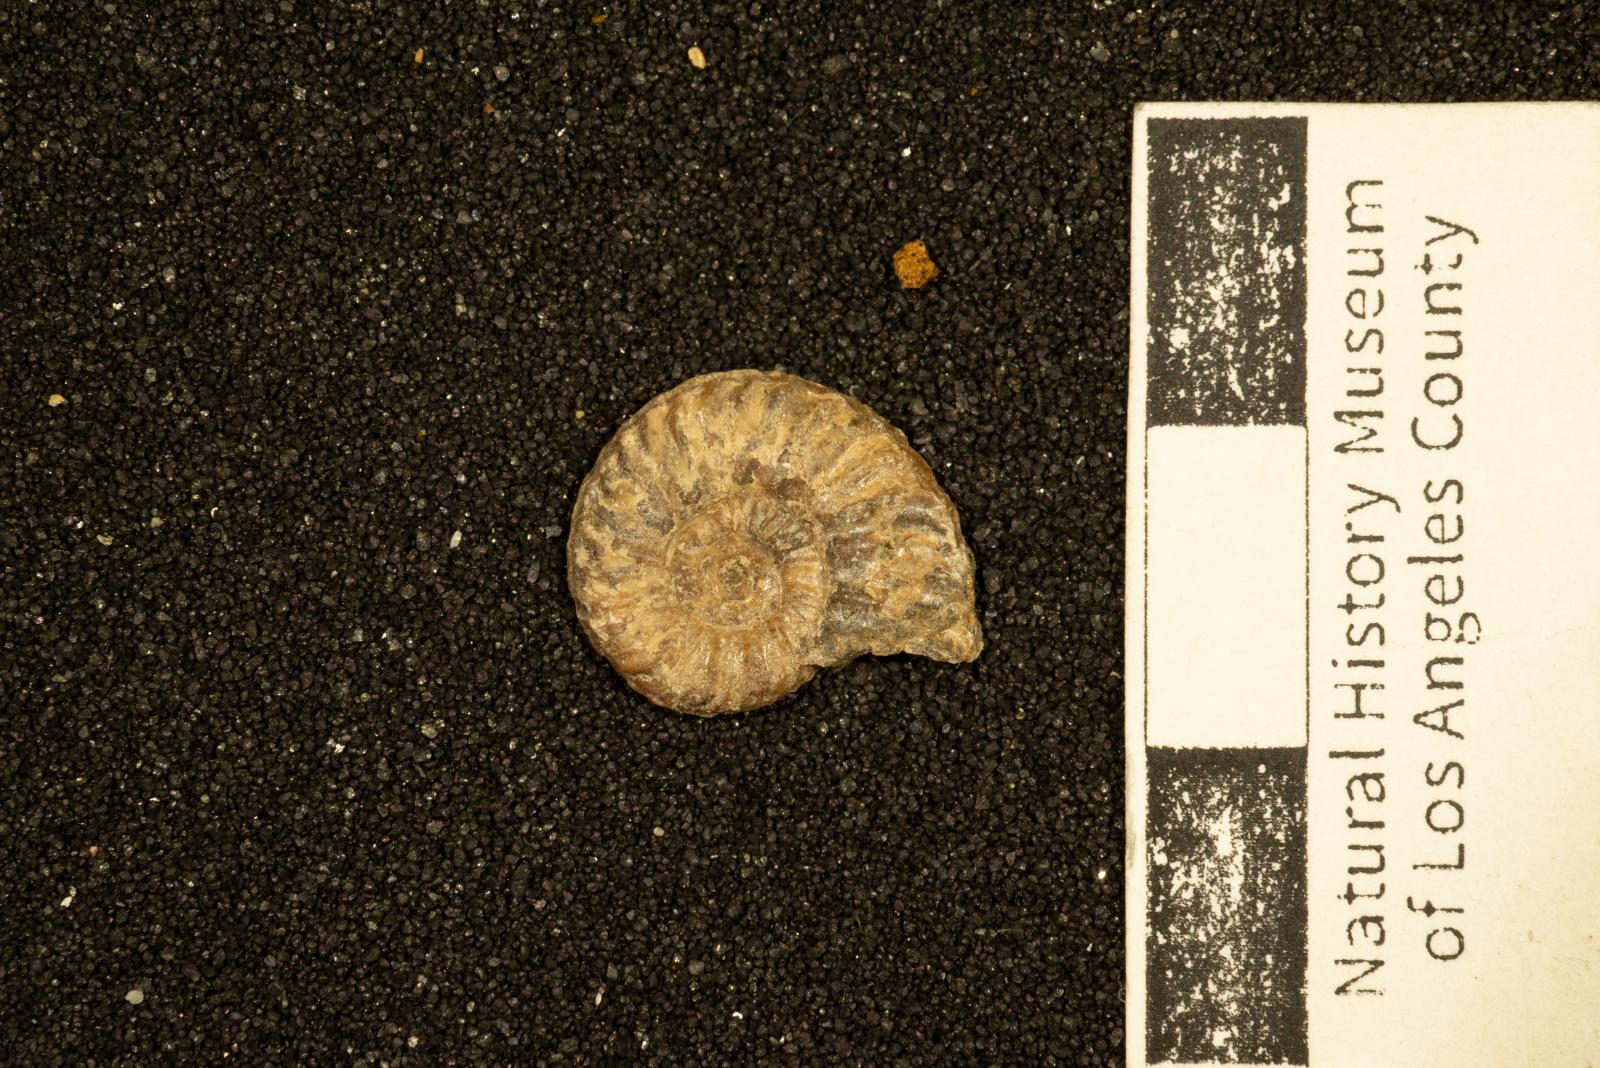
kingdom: Animalia
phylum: Mollusca
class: Cephalopoda
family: Collignoniceratidae
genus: Subprionocyclus
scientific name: Subprionocyclus
